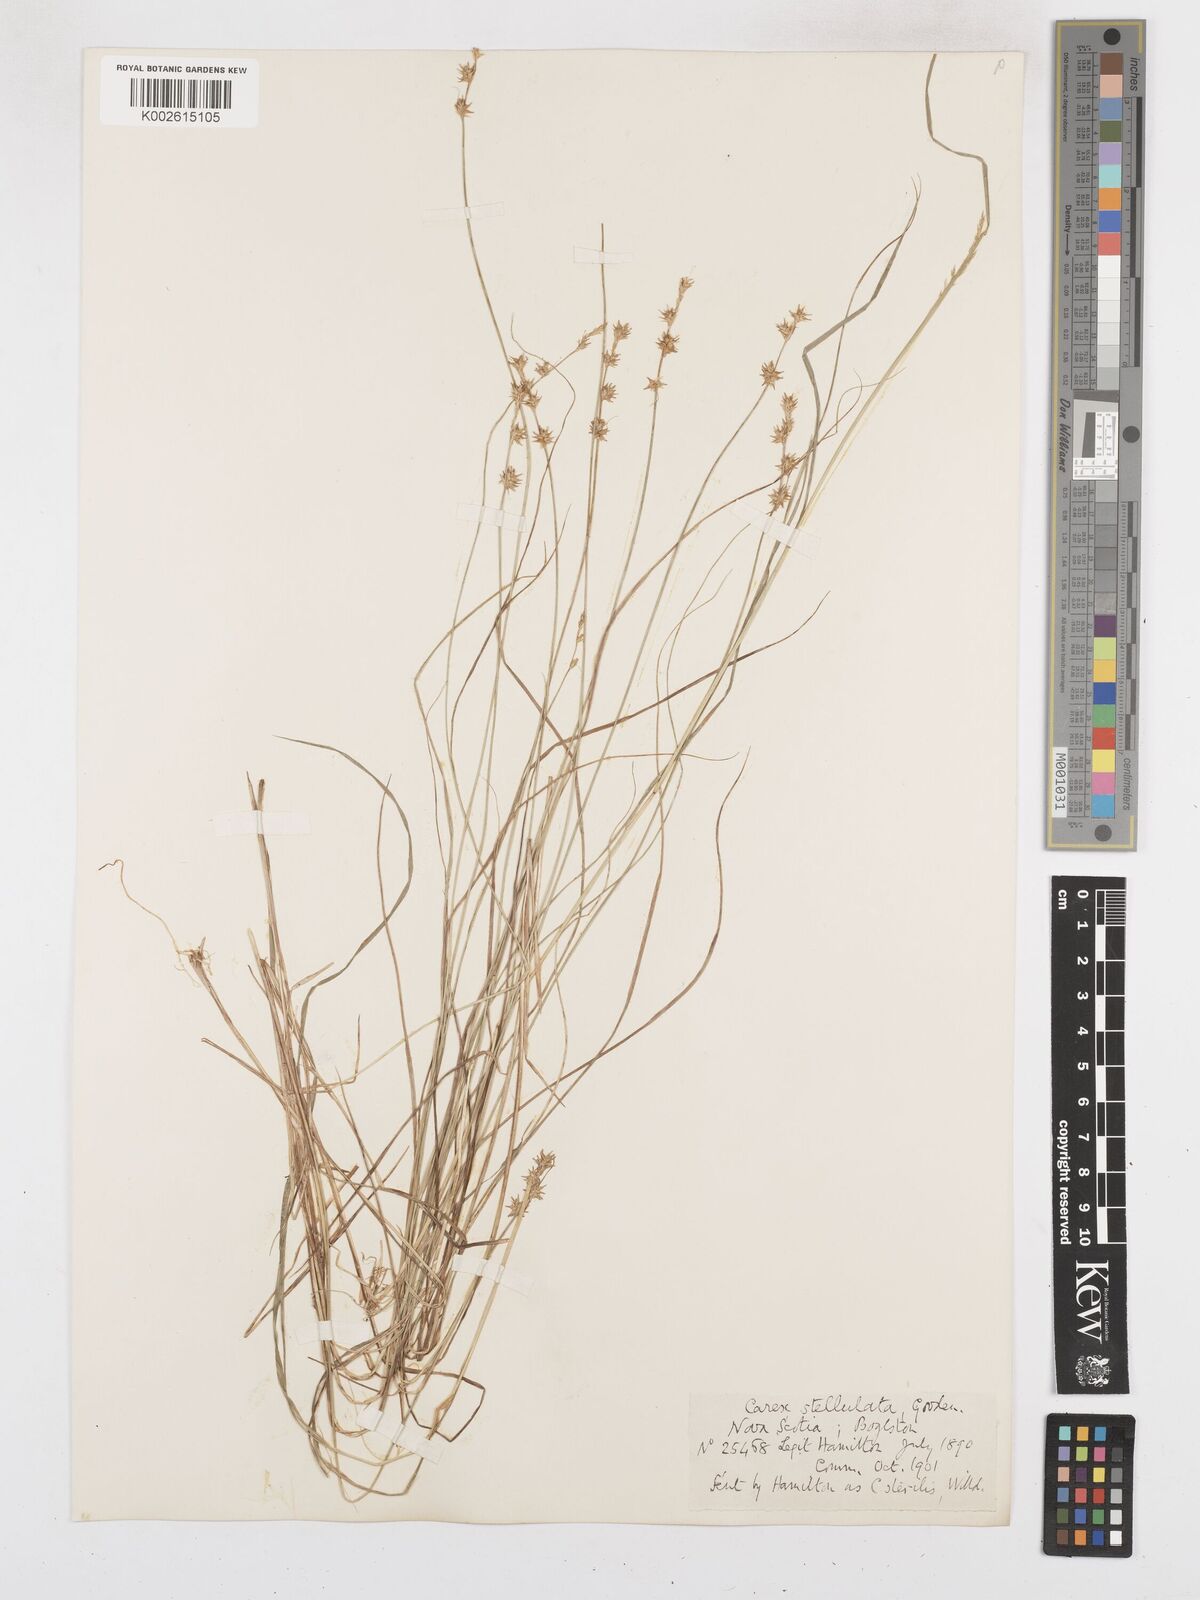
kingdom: Plantae
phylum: Tracheophyta
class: Liliopsida
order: Poales
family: Cyperaceae
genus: Carex
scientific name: Carex echinata
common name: Star sedge
